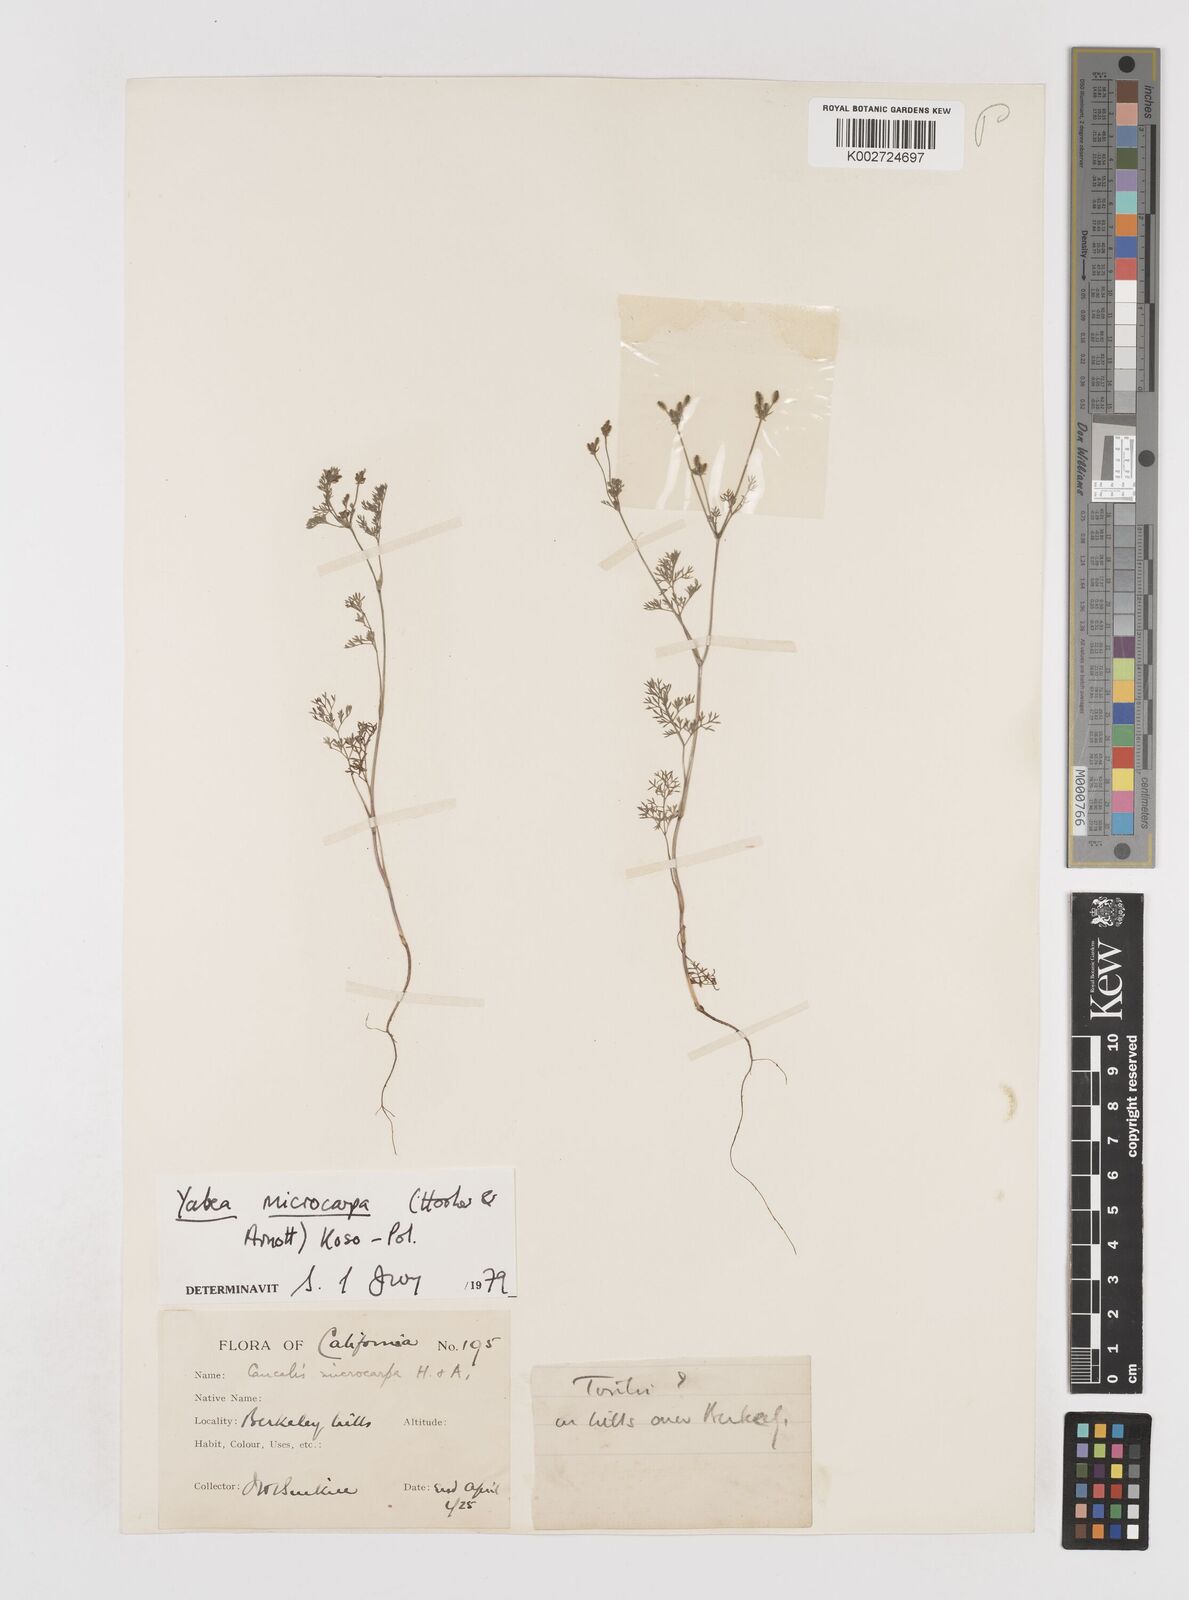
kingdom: Plantae
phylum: Tracheophyta
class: Magnoliopsida
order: Apiales
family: Apiaceae
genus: Yabea
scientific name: Yabea microcarpa
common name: False carrot
